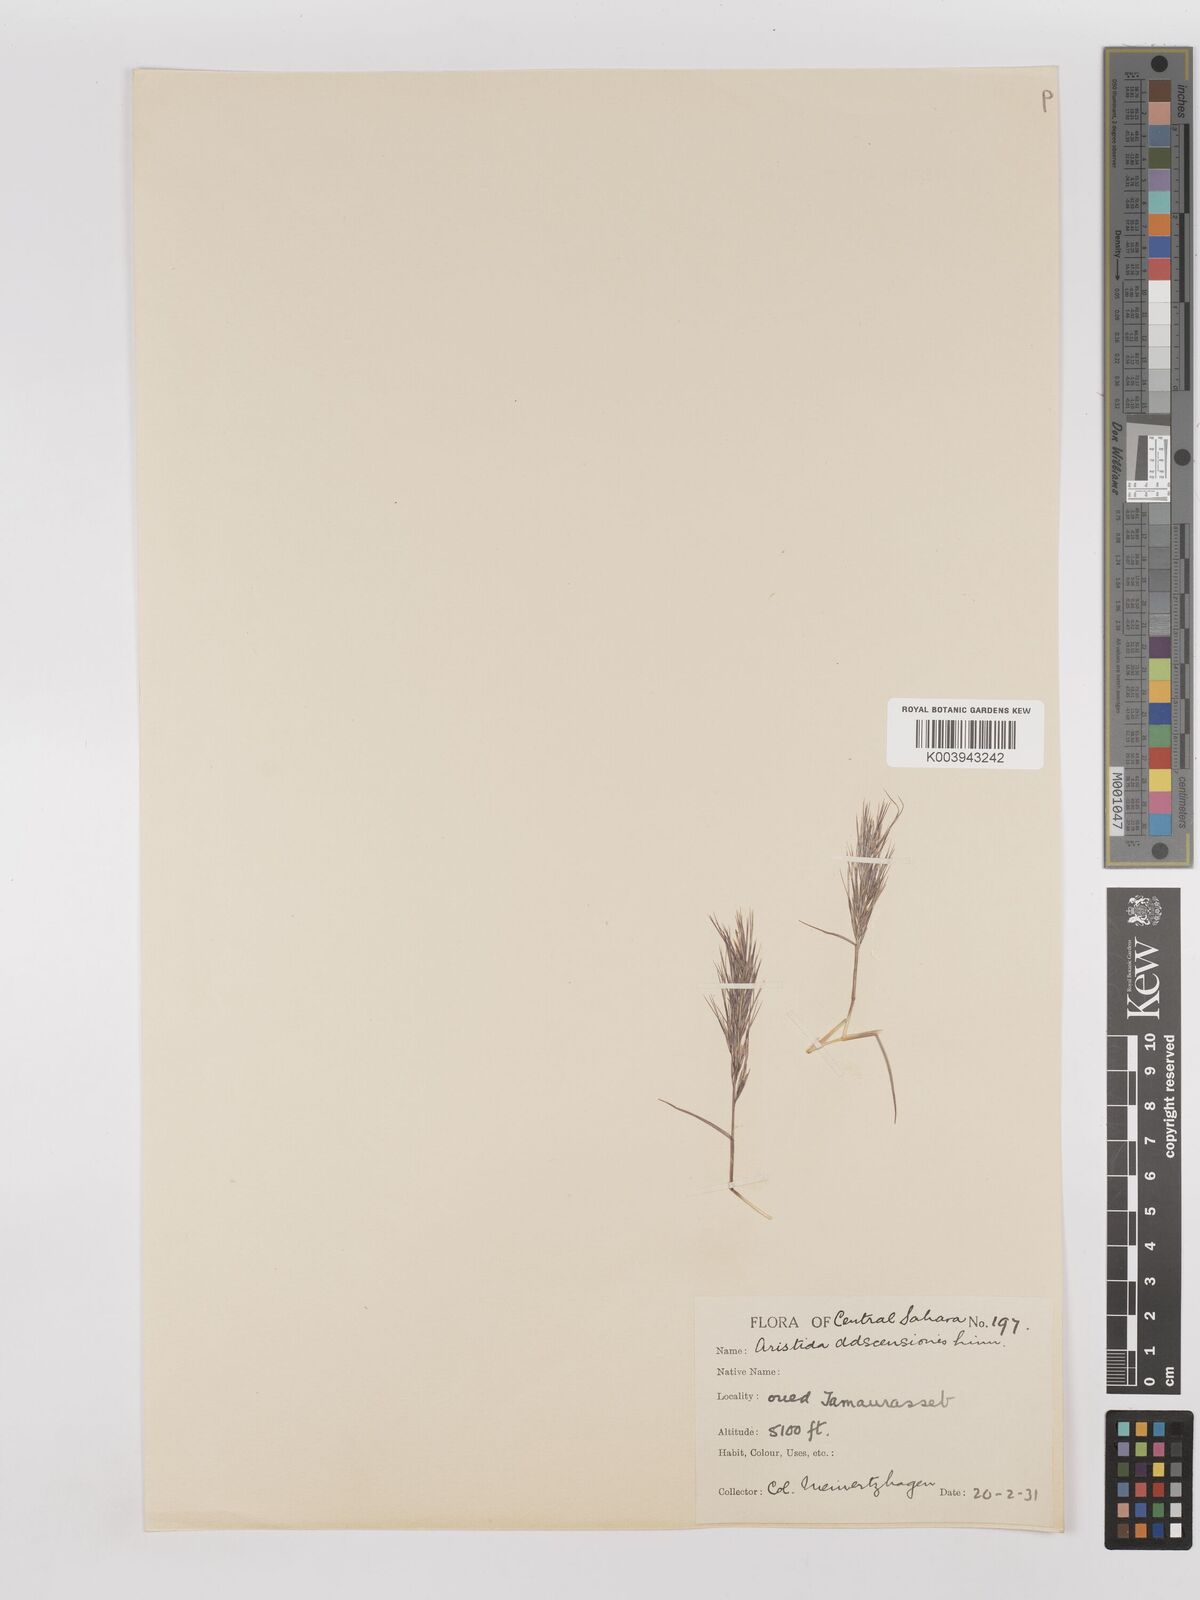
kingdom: Plantae
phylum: Tracheophyta
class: Liliopsida
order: Poales
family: Poaceae
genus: Aristida
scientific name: Aristida adscensionis
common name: Sixweeks threeawn
